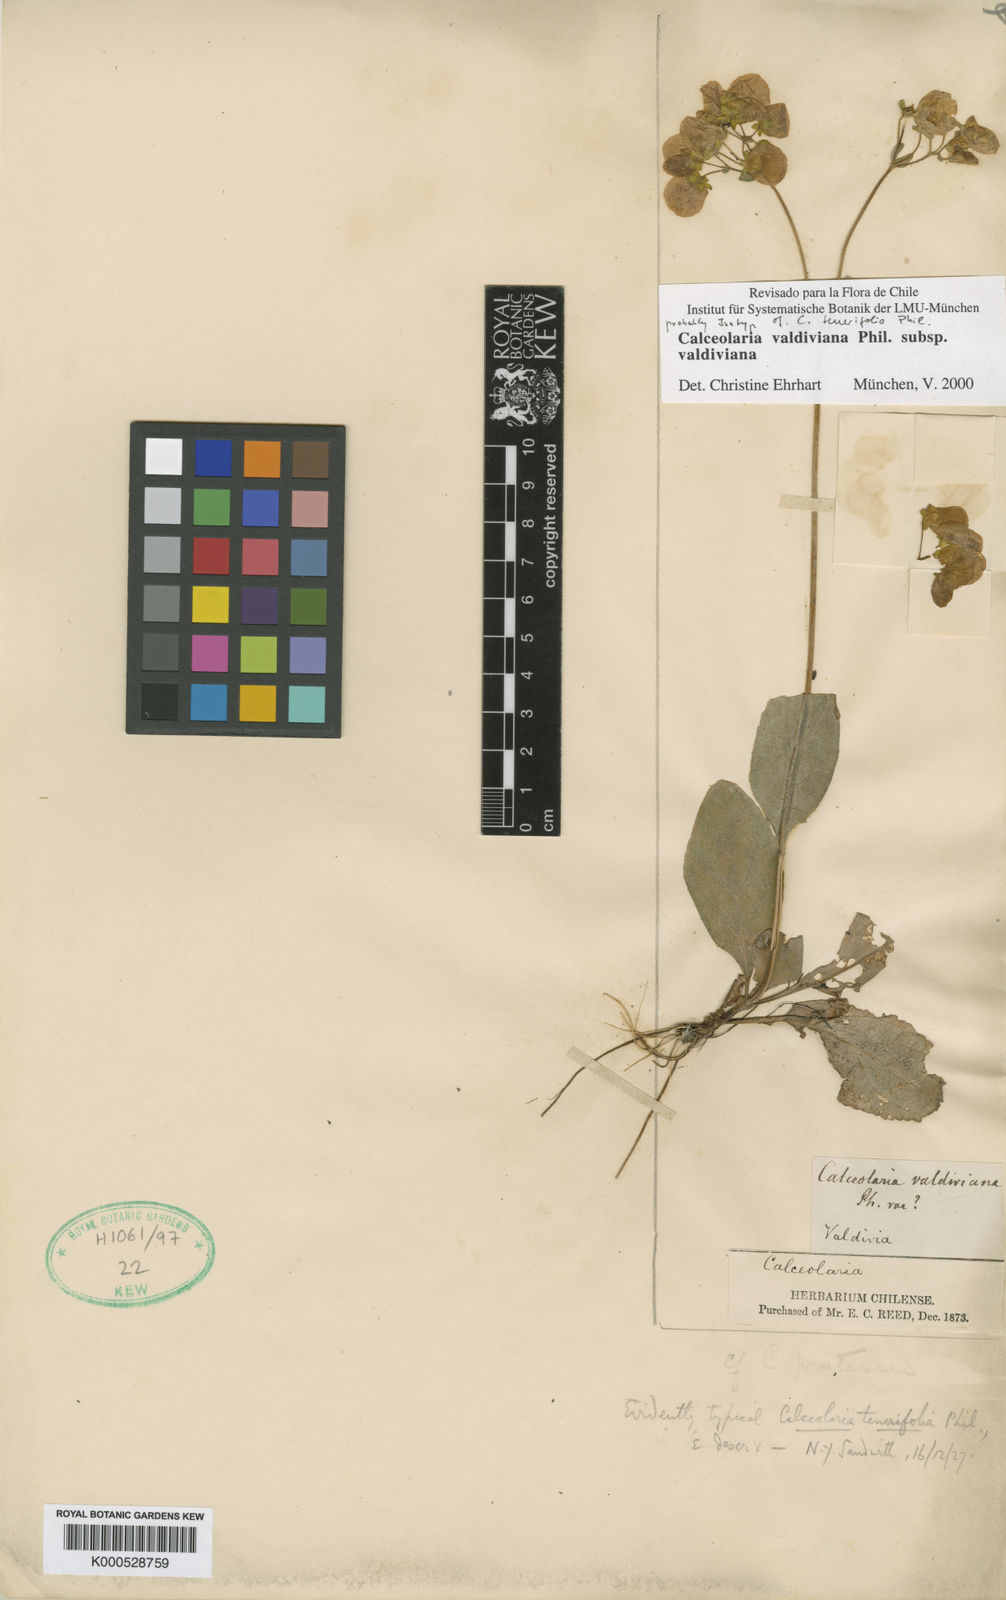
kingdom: Plantae
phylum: Tracheophyta
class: Magnoliopsida
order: Lamiales
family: Calceolariaceae
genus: Calceolaria
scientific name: Calceolaria valdiviana
